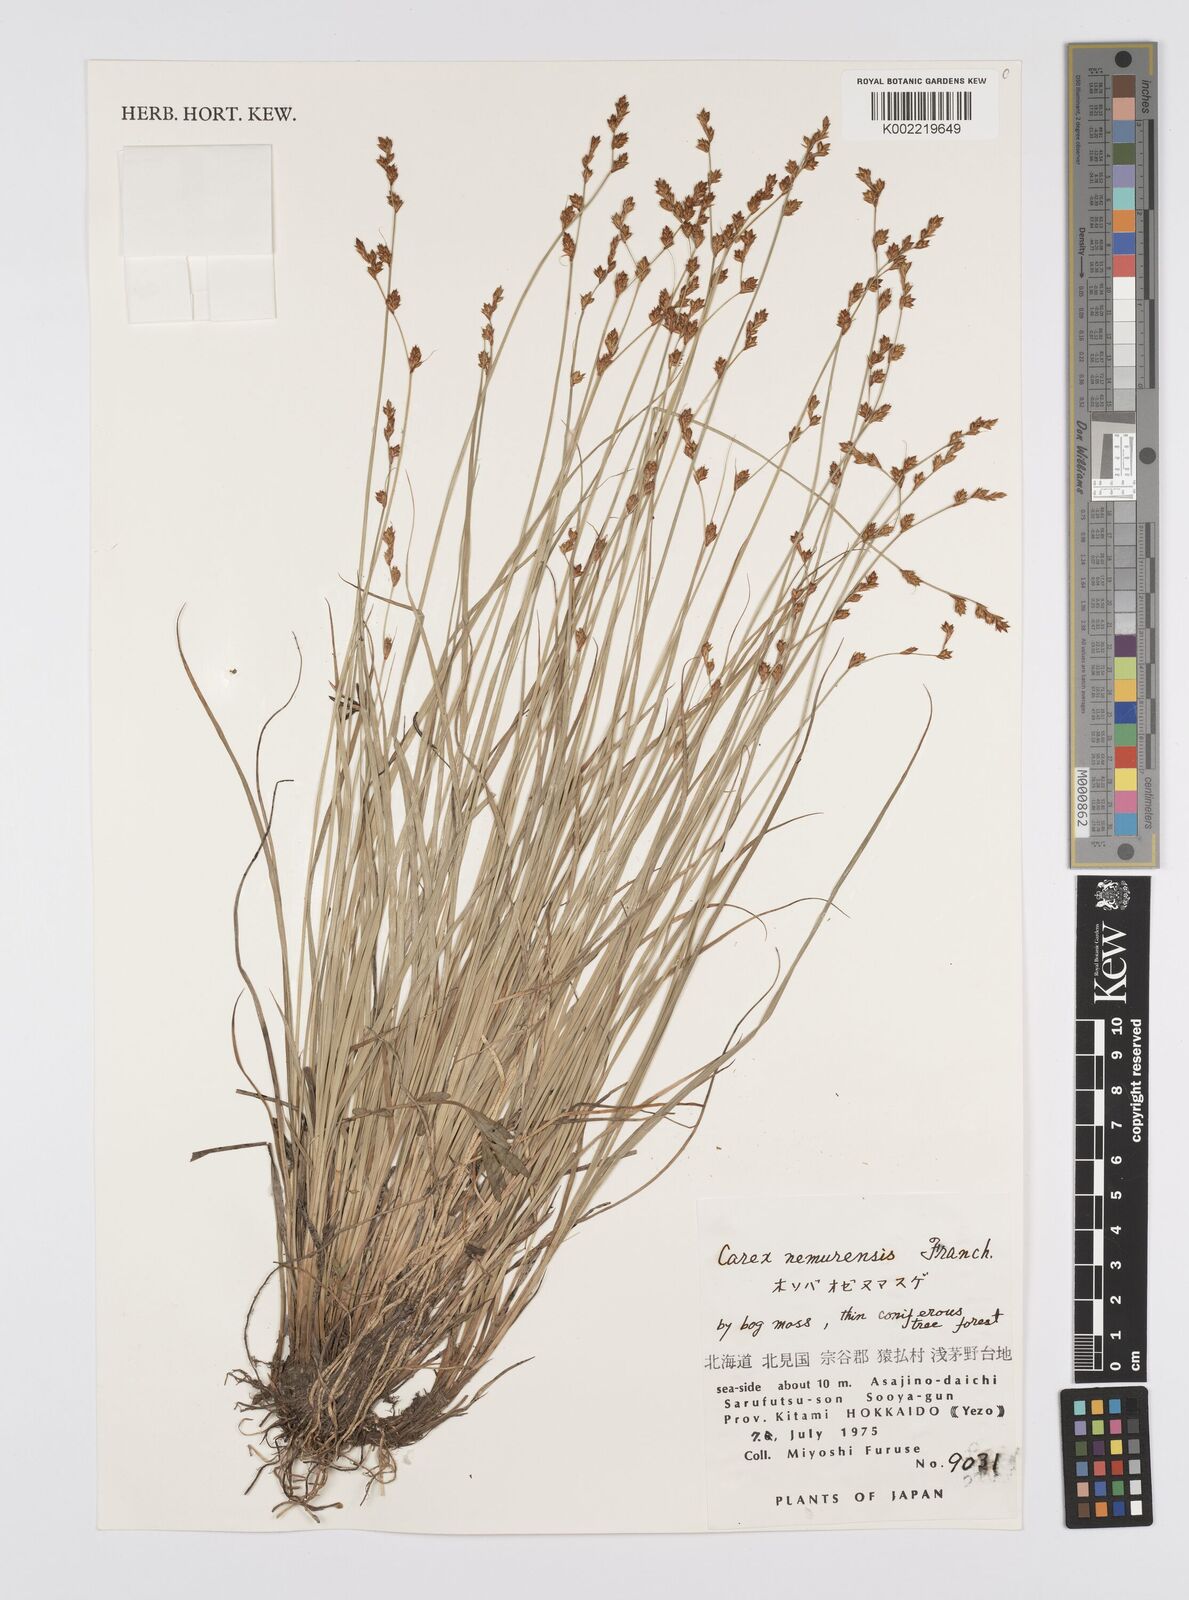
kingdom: Plantae
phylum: Tracheophyta
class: Liliopsida
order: Poales
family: Cyperaceae
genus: Carex
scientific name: Carex traiziscana
